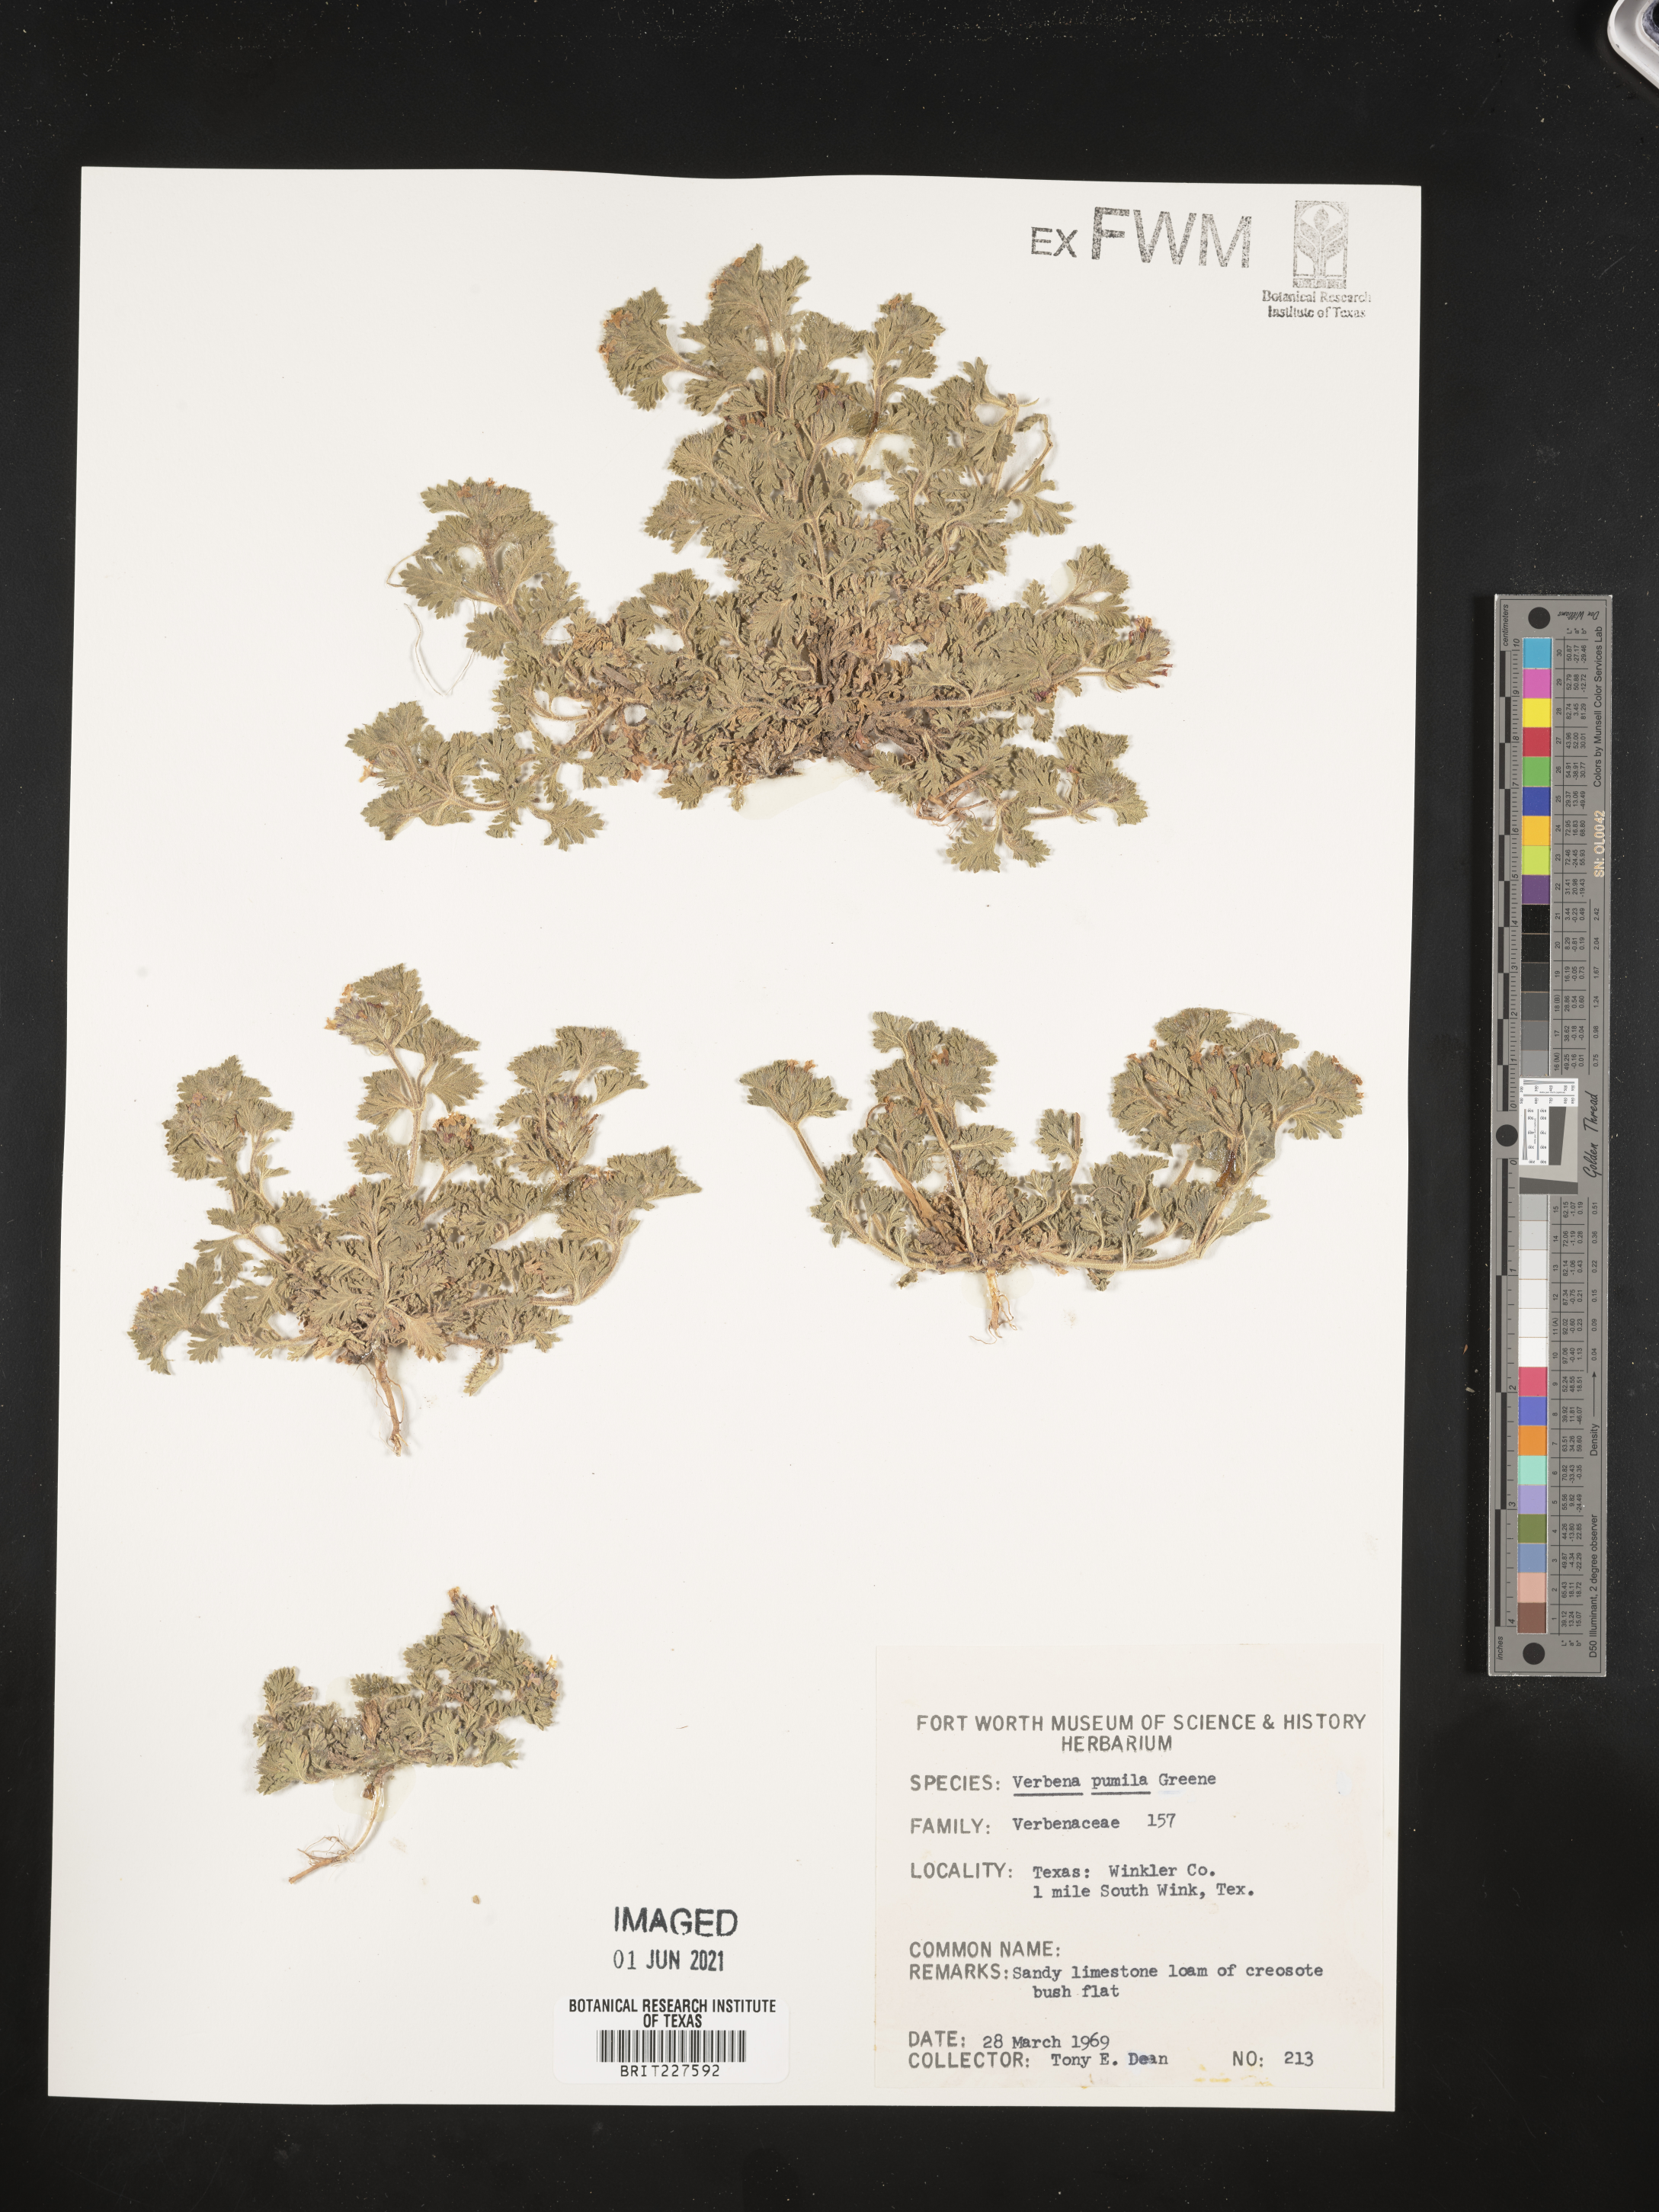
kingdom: Plantae
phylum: Tracheophyta
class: Magnoliopsida
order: Lamiales
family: Verbenaceae
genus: Verbena
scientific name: Verbena pumila
